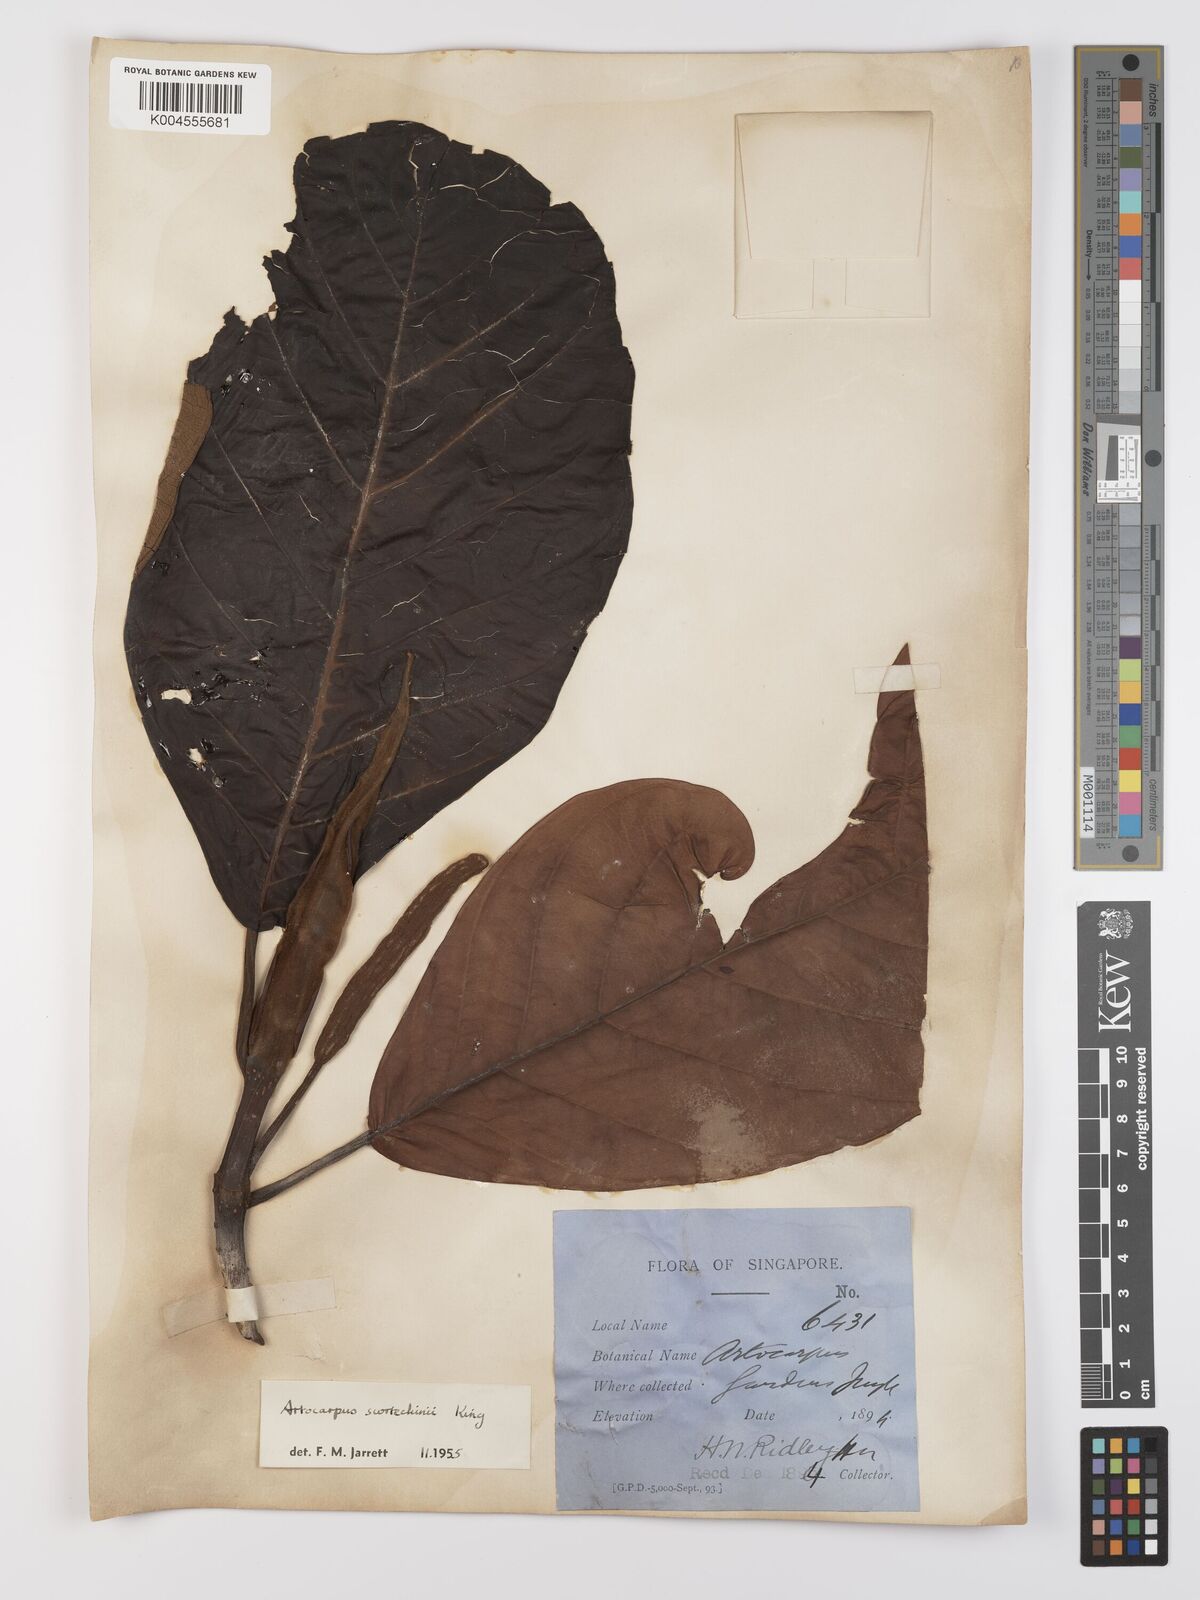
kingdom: Plantae
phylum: Tracheophyta
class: Magnoliopsida
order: Rosales
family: Moraceae
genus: Artocarpus
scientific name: Artocarpus elasticus
